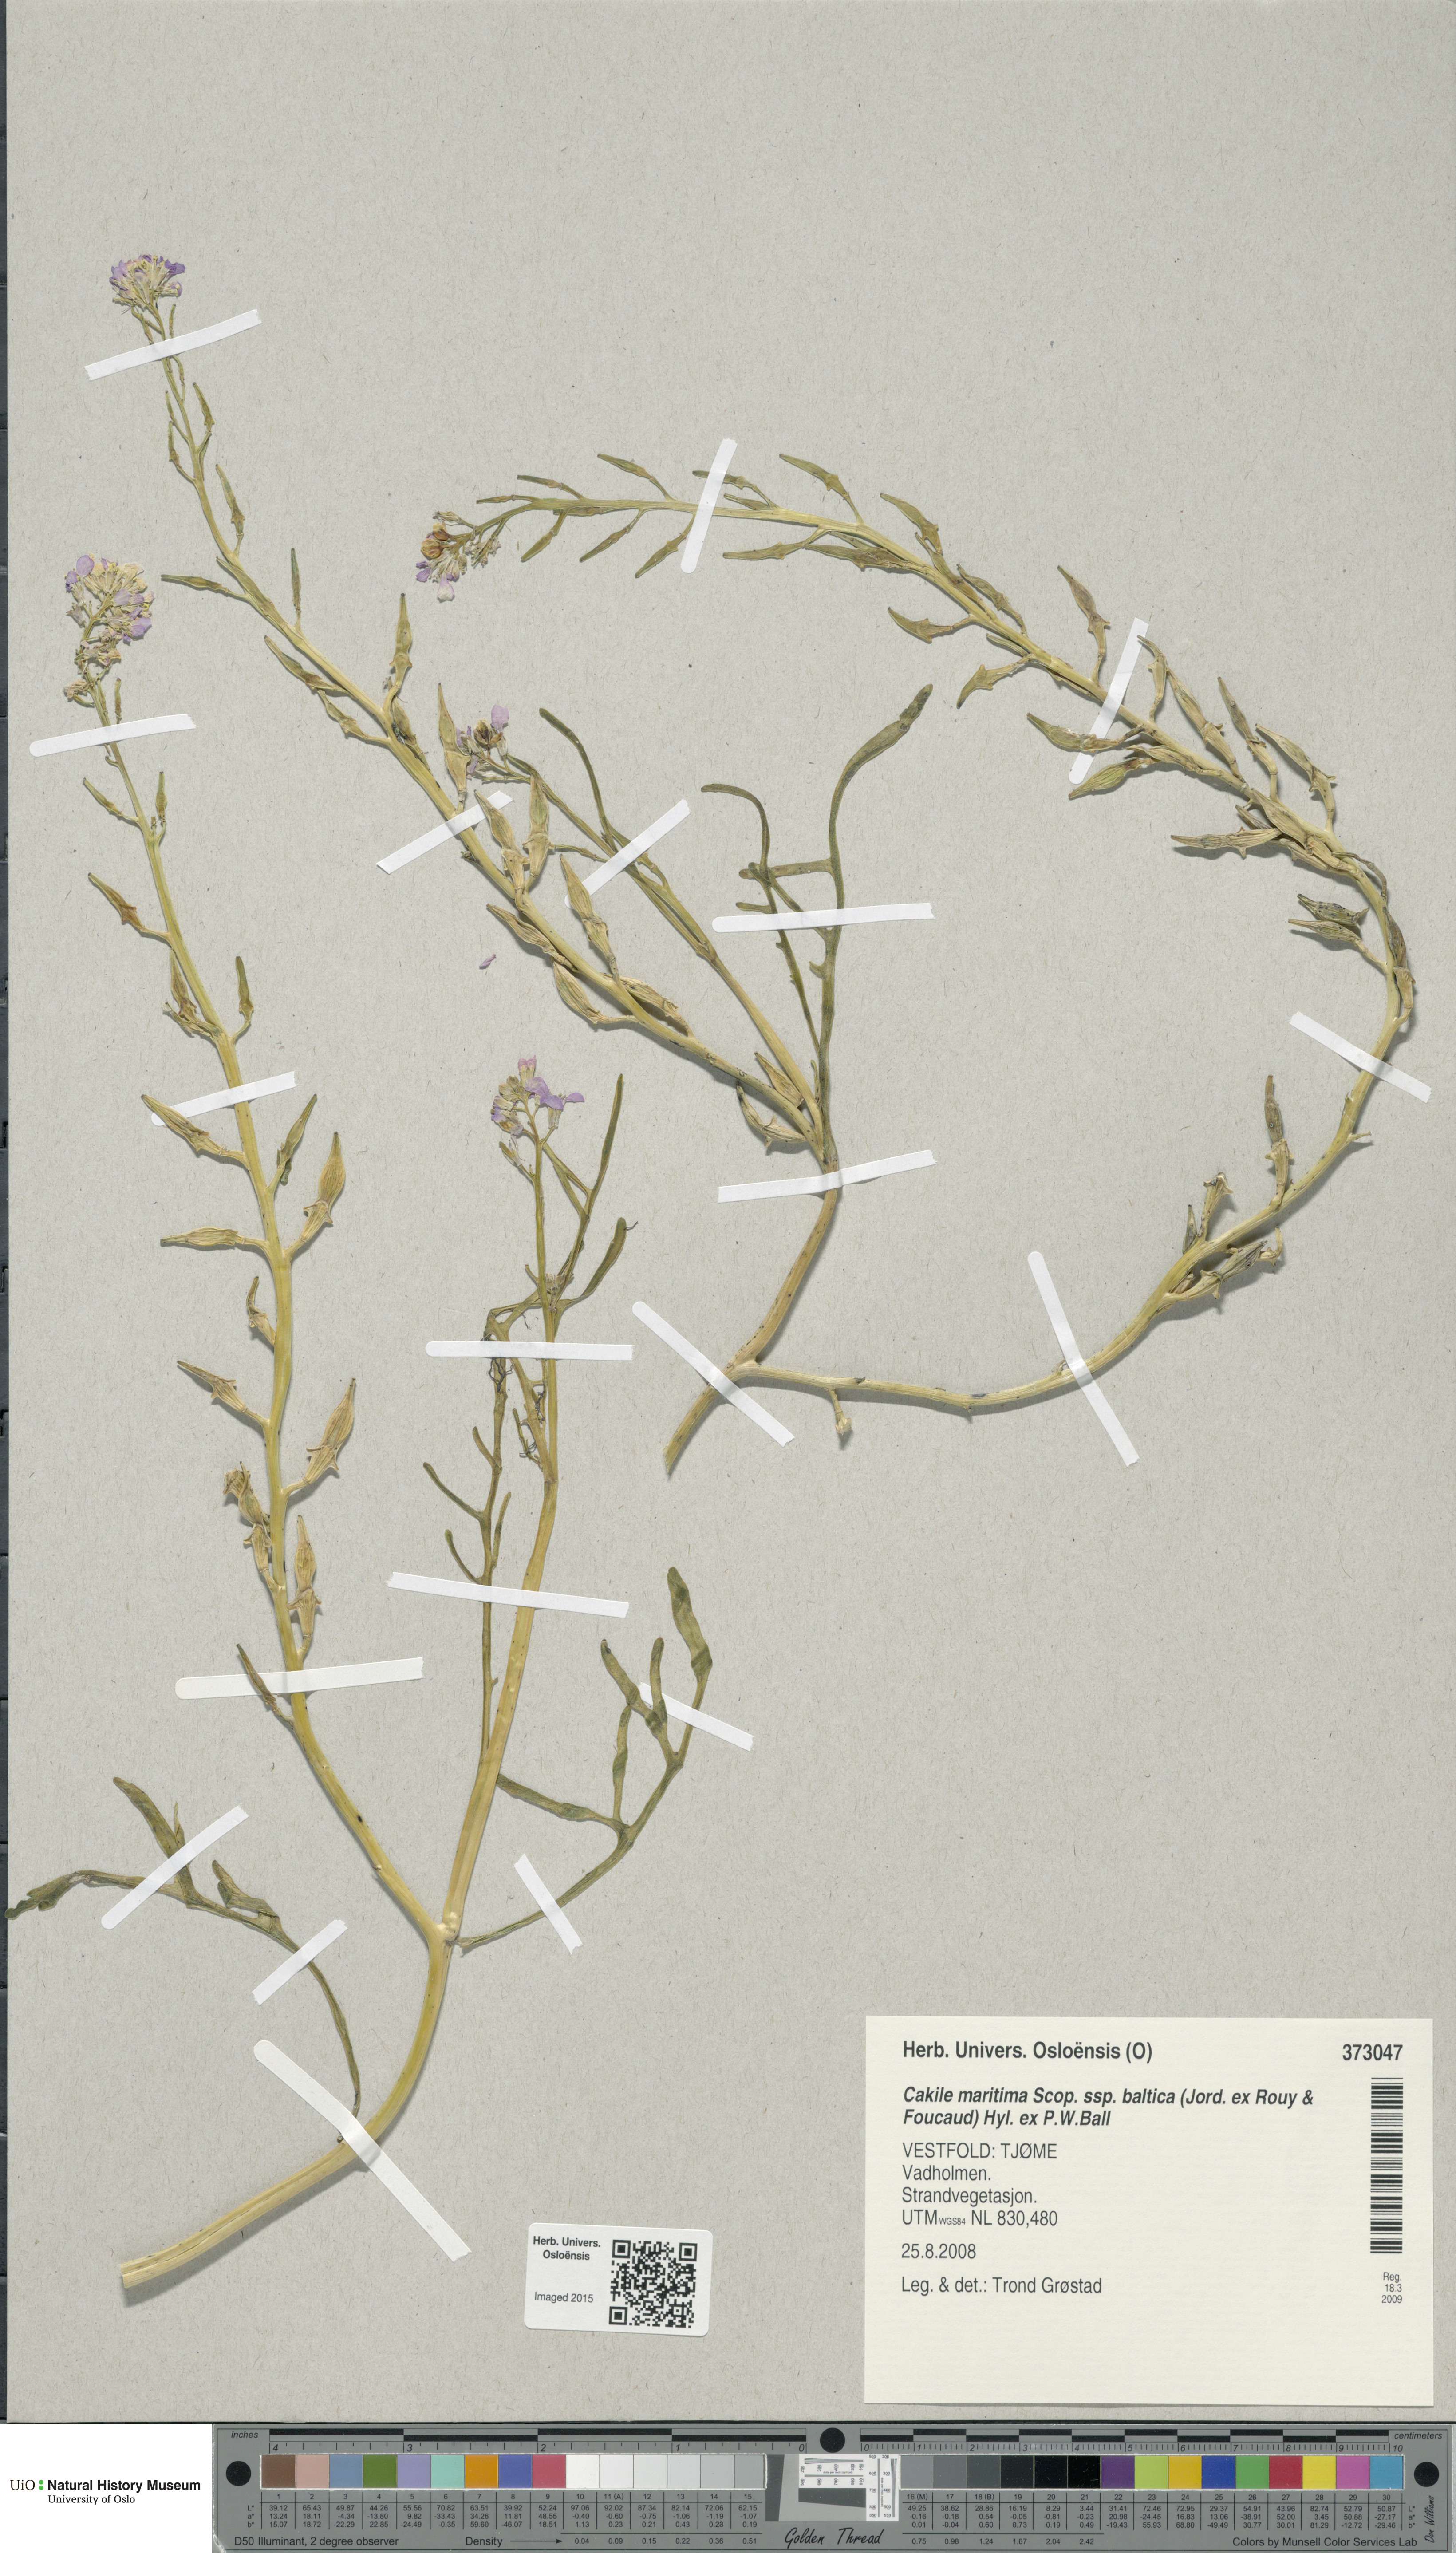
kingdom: Plantae
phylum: Tracheophyta
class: Magnoliopsida
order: Brassicales
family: Brassicaceae
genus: Cakile
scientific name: Cakile maritima
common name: Sea rocket
